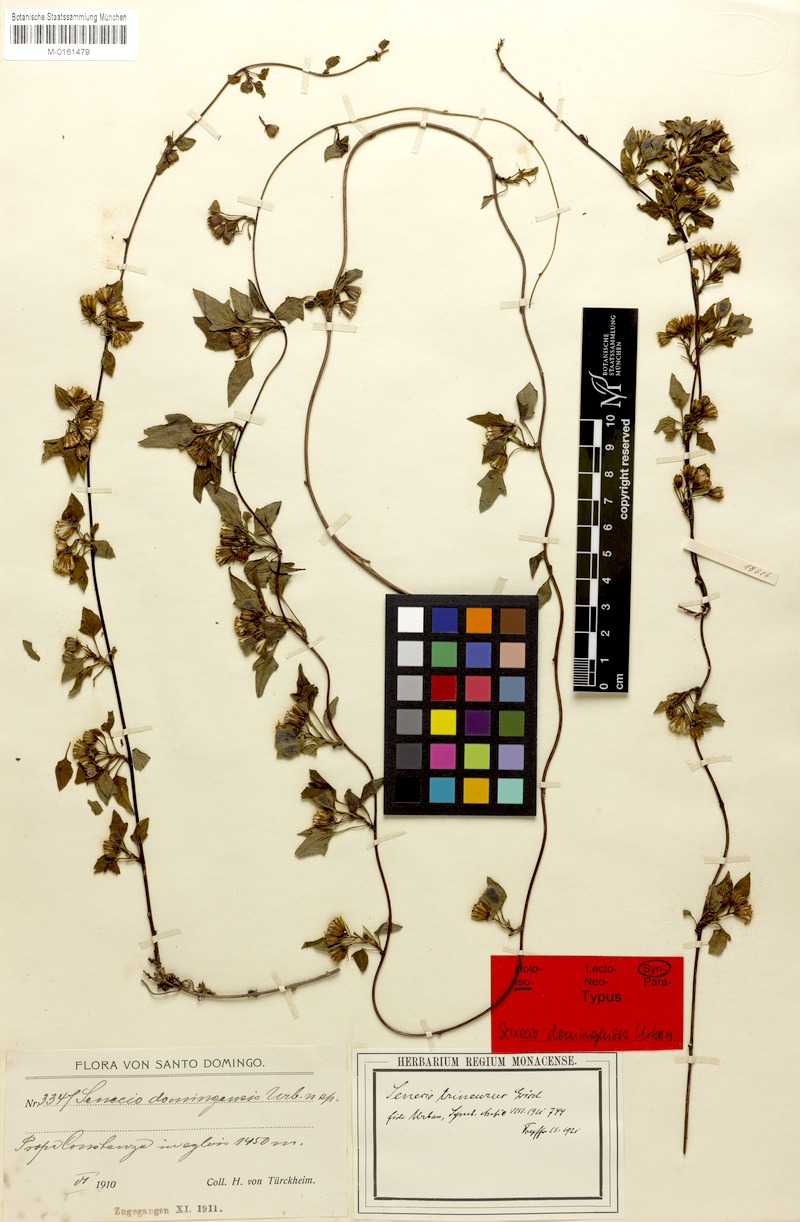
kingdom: Plantae
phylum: Tracheophyta
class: Magnoliopsida
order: Asterales
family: Asteraceae
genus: Leonis
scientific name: Leonis trineura
